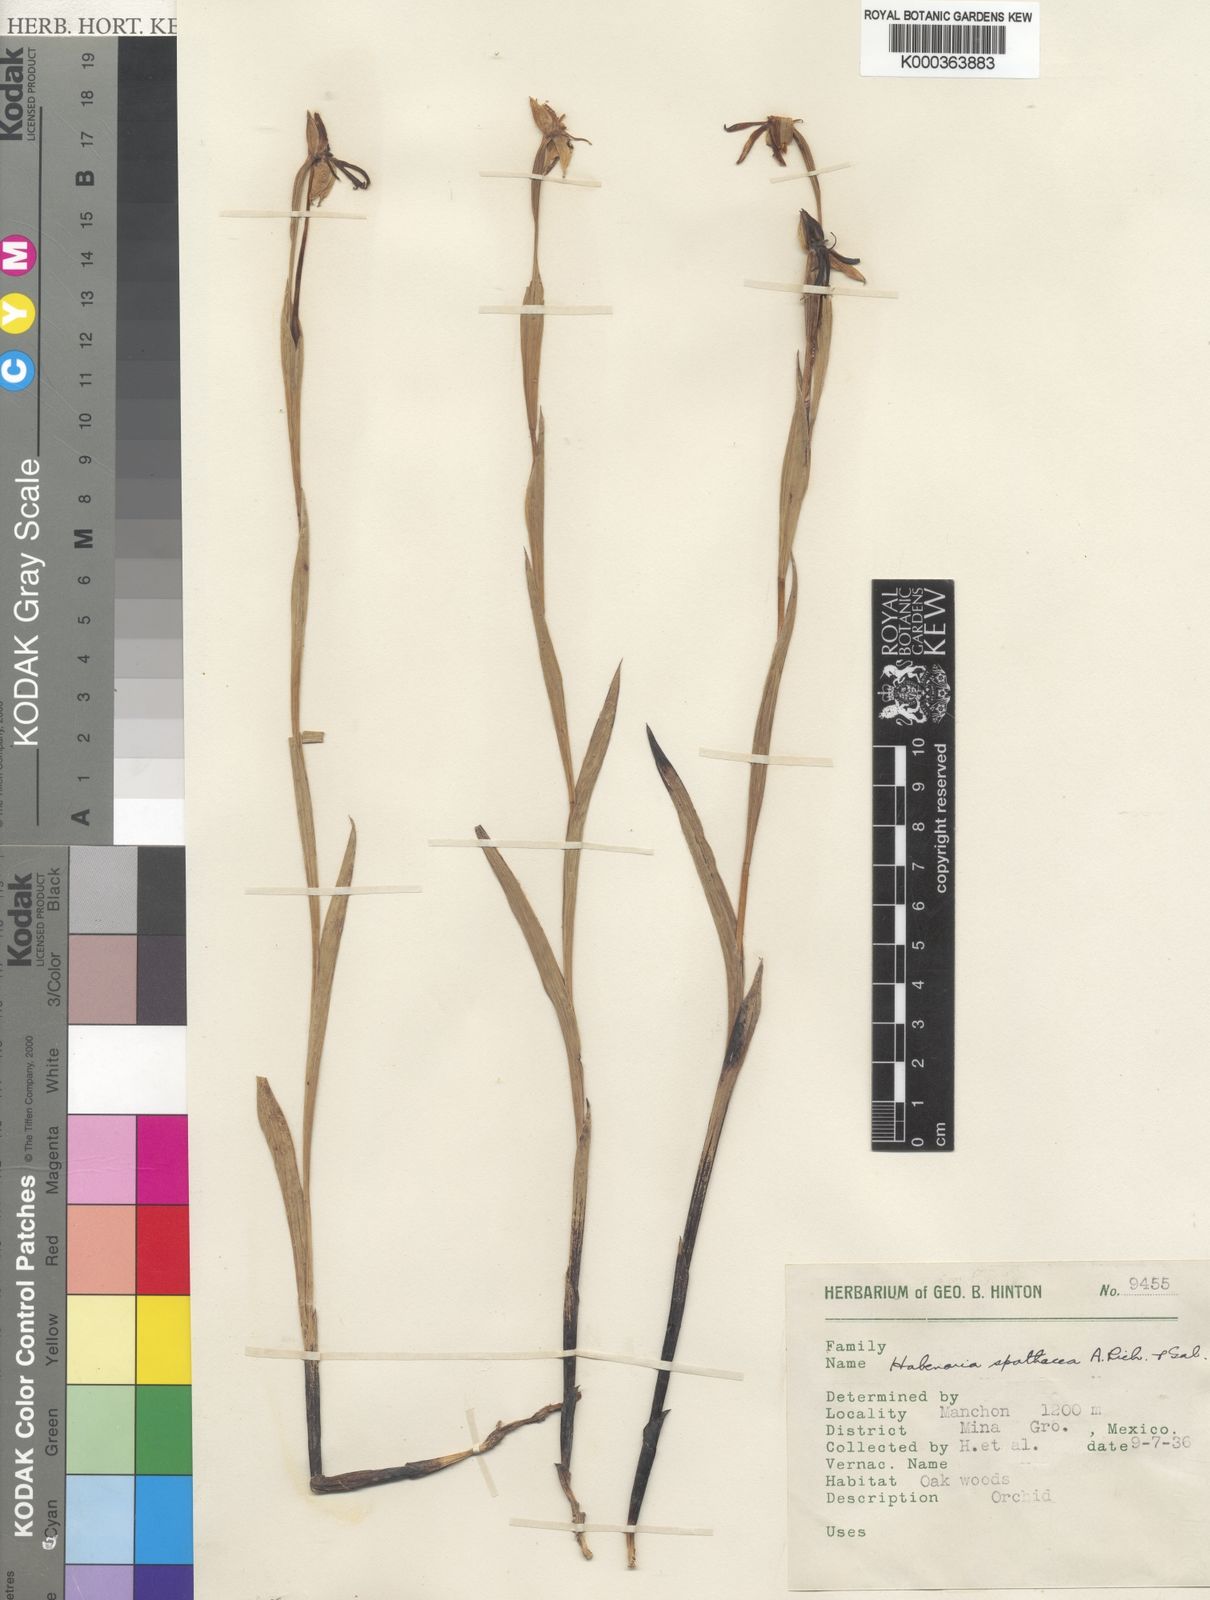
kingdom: Plantae
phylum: Tracheophyta
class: Liliopsida
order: Asparagales
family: Orchidaceae
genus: Habenaria
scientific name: Habenaria trifida
